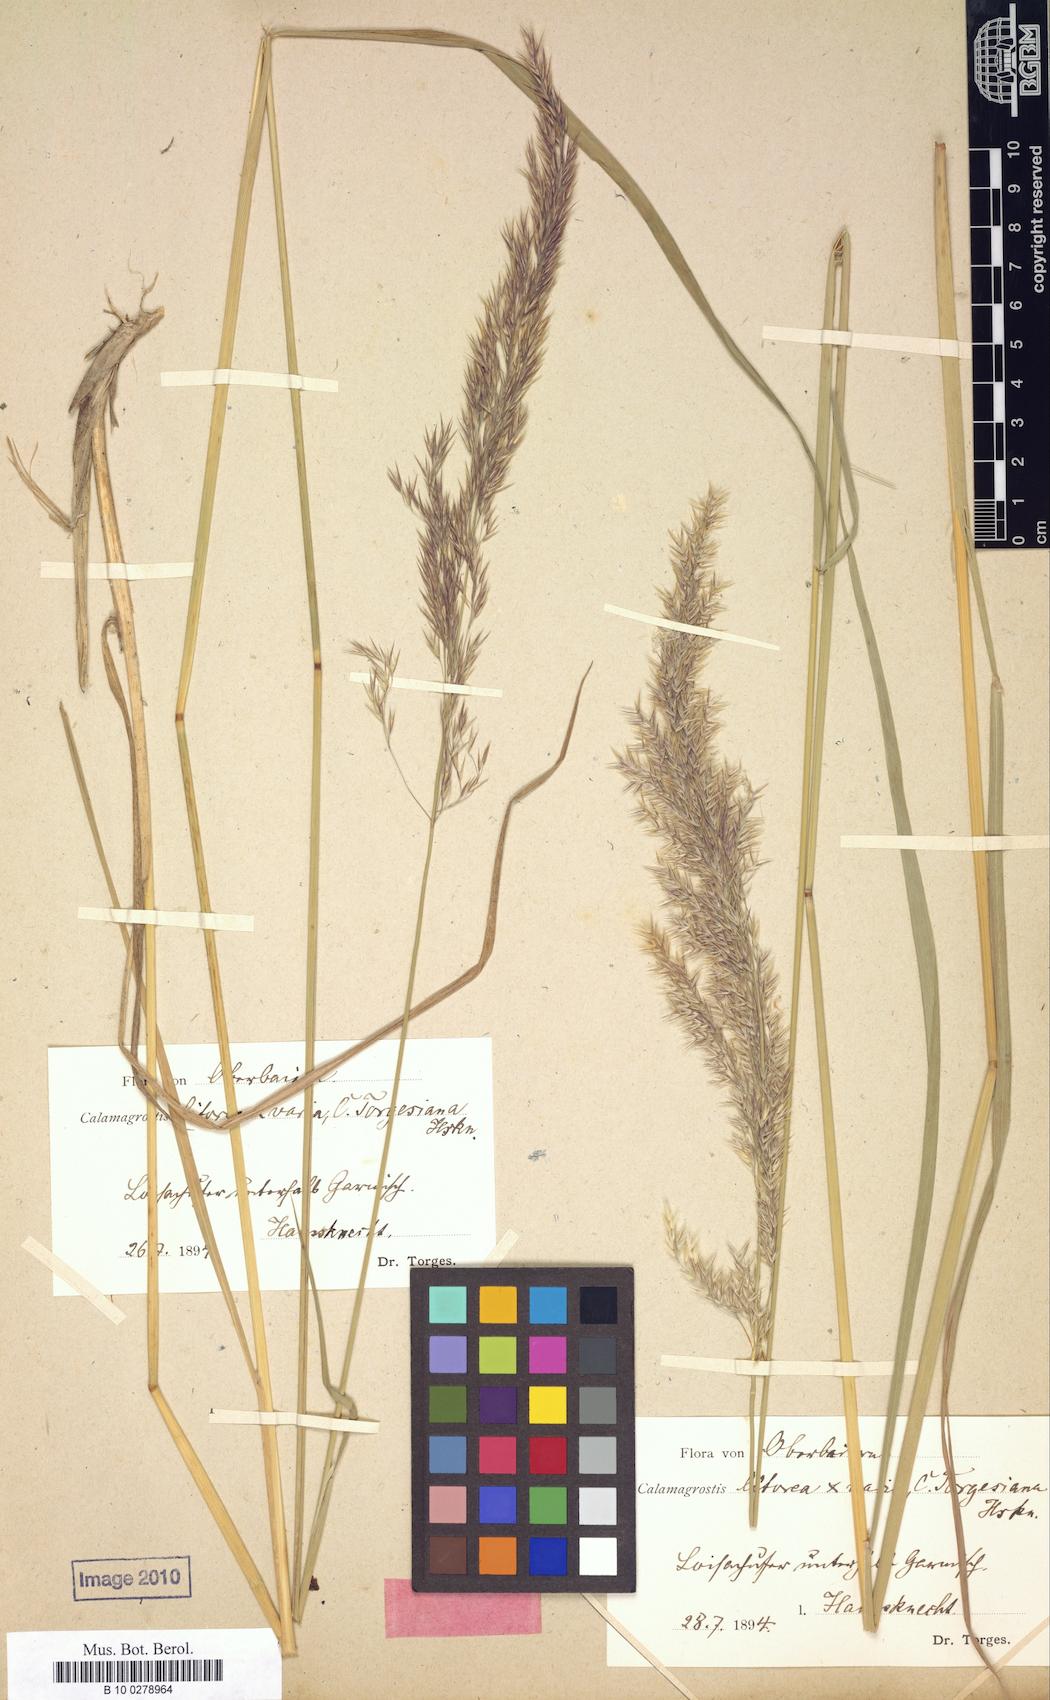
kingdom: Plantae
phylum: Tracheophyta
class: Liliopsida
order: Poales
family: Poaceae
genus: Calamagrostis
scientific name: Calamagrostis torgesiana
